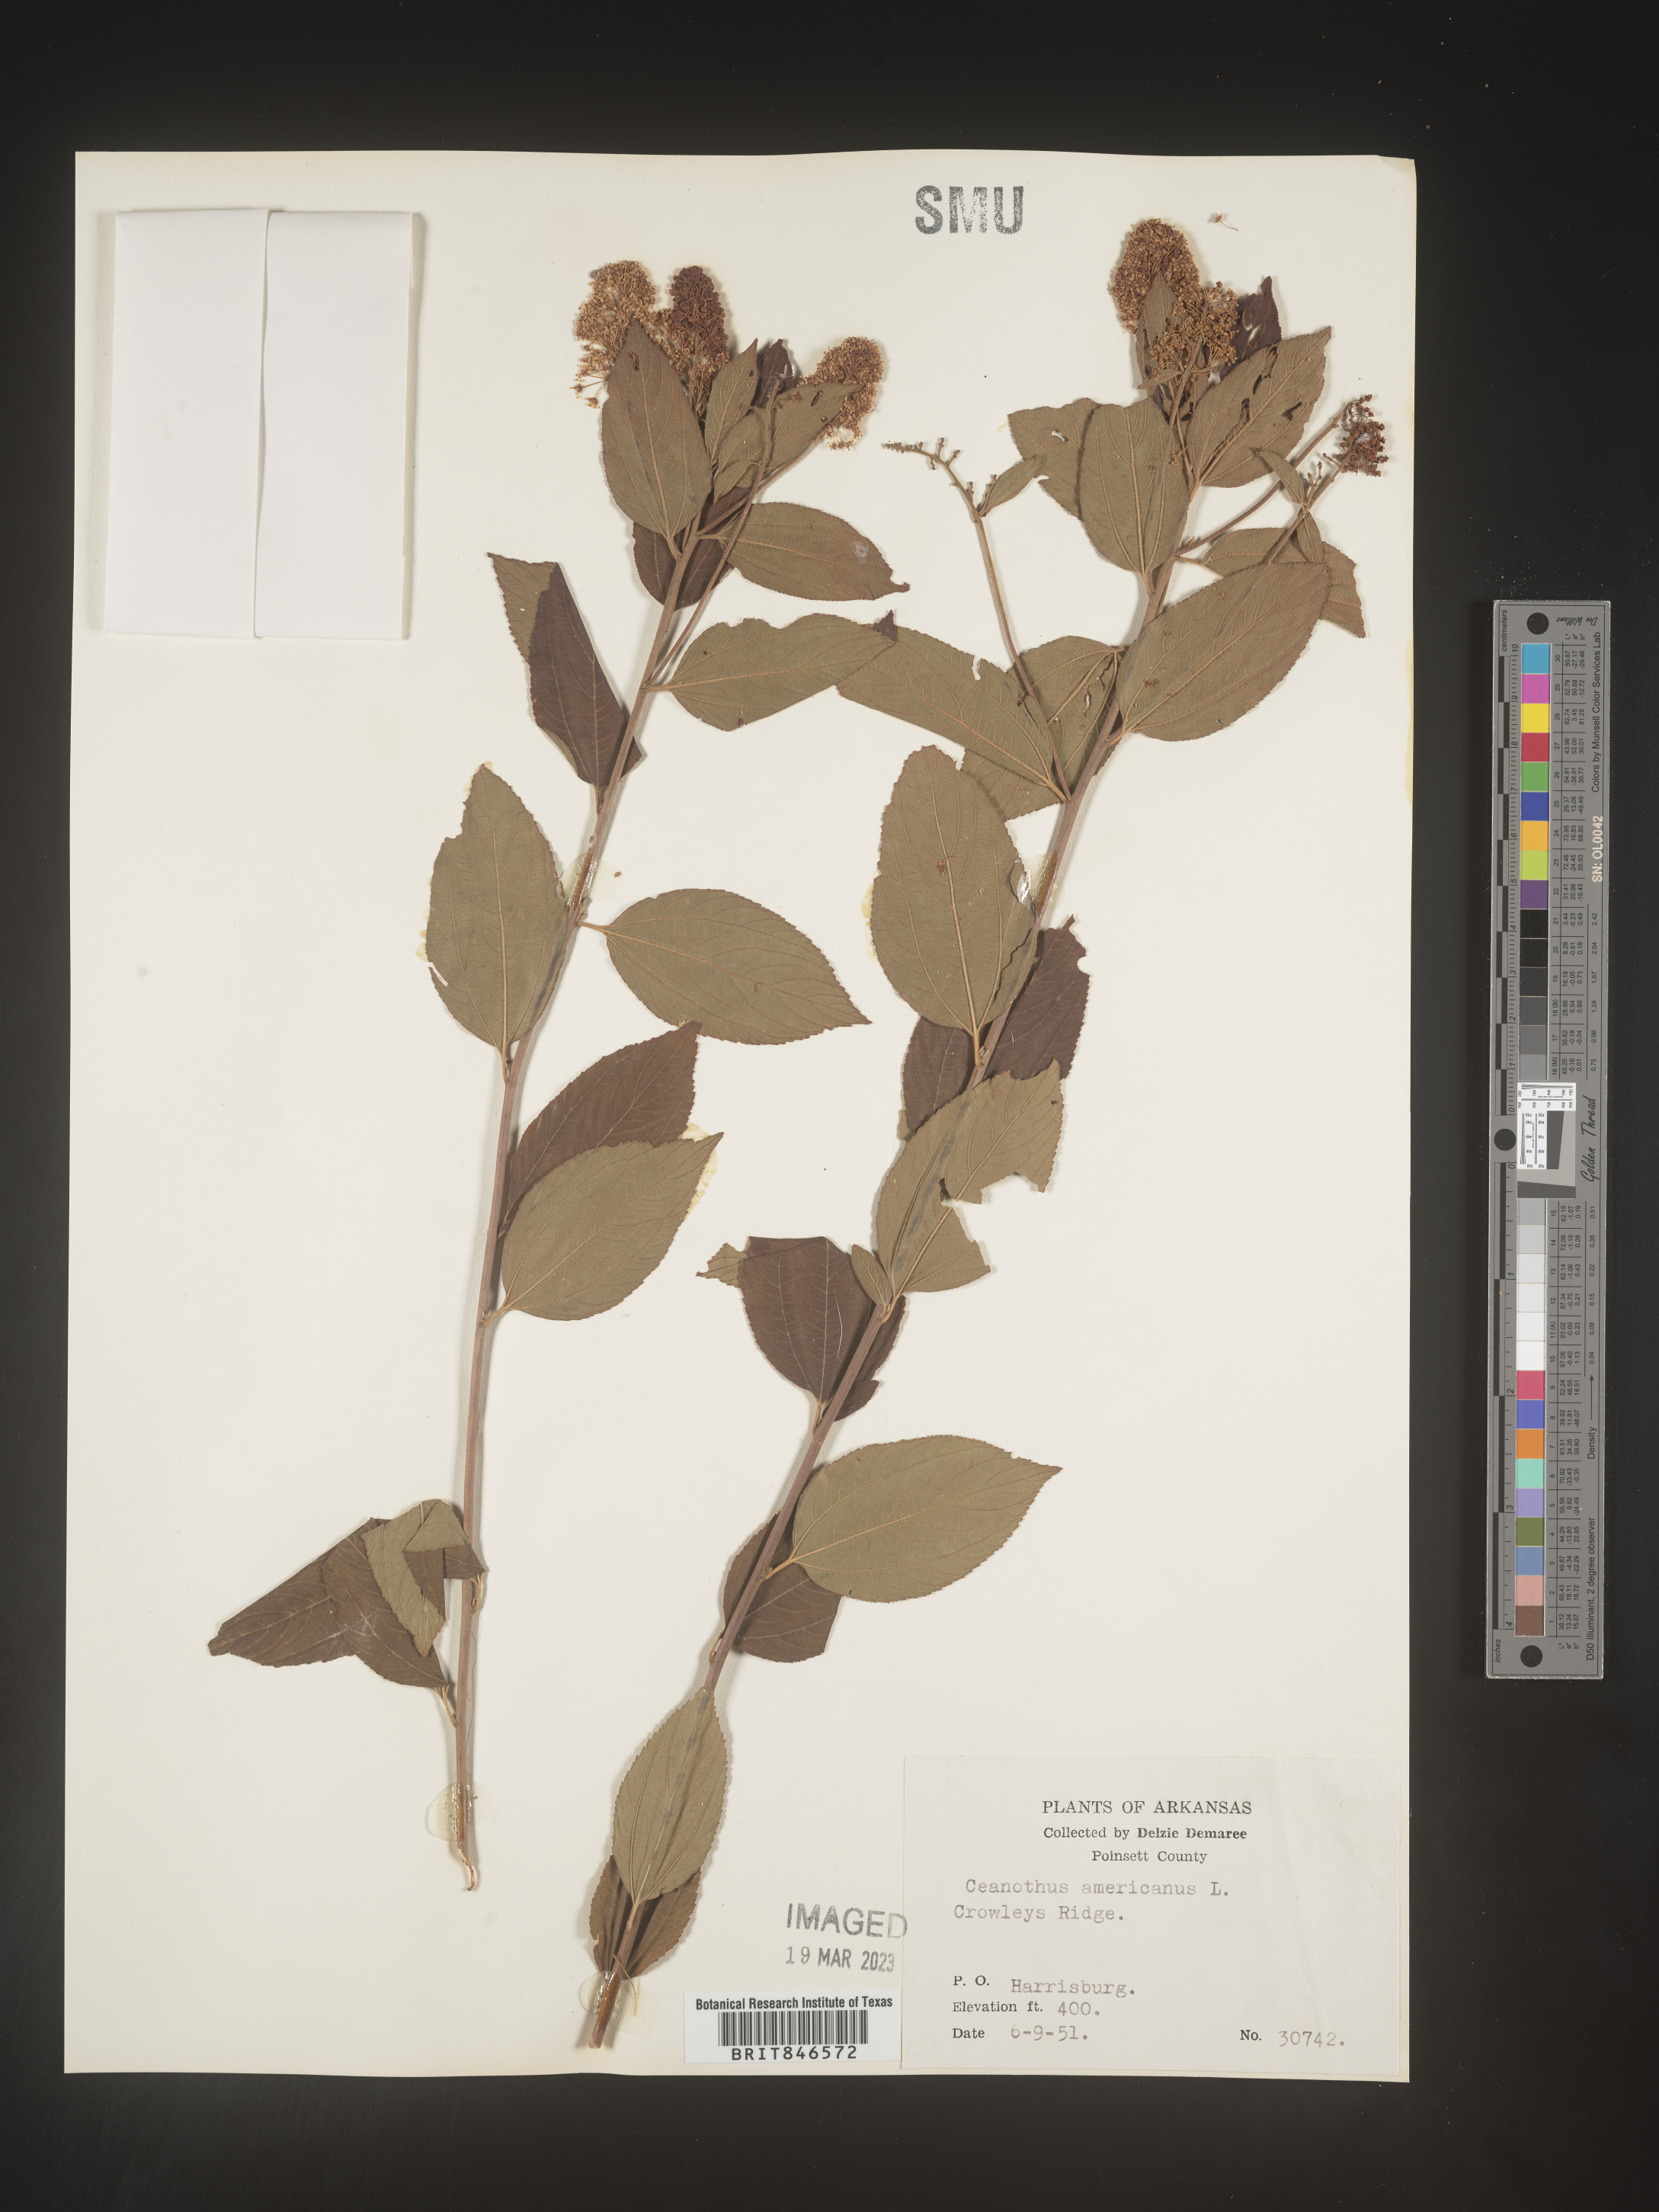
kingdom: Plantae
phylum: Tracheophyta
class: Magnoliopsida
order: Rosales
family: Rhamnaceae
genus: Ceanothus
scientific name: Ceanothus americanus
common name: Redroot
